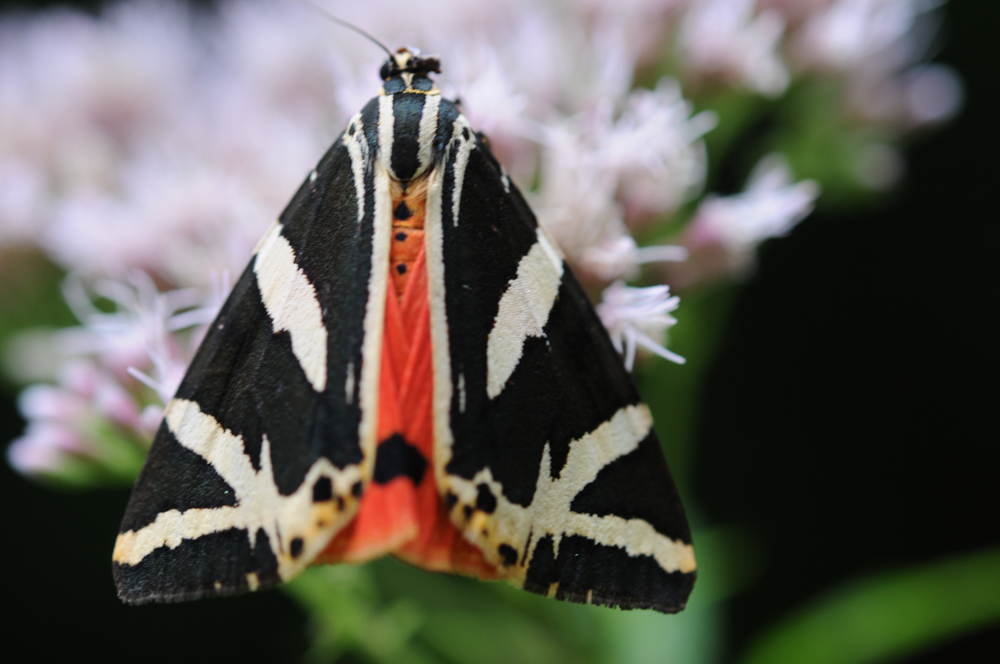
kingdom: Animalia
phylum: Arthropoda
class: Insecta
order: Lepidoptera
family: Erebidae
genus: Euplagia
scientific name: Euplagia quadripunctaria
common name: Jersey tiger
